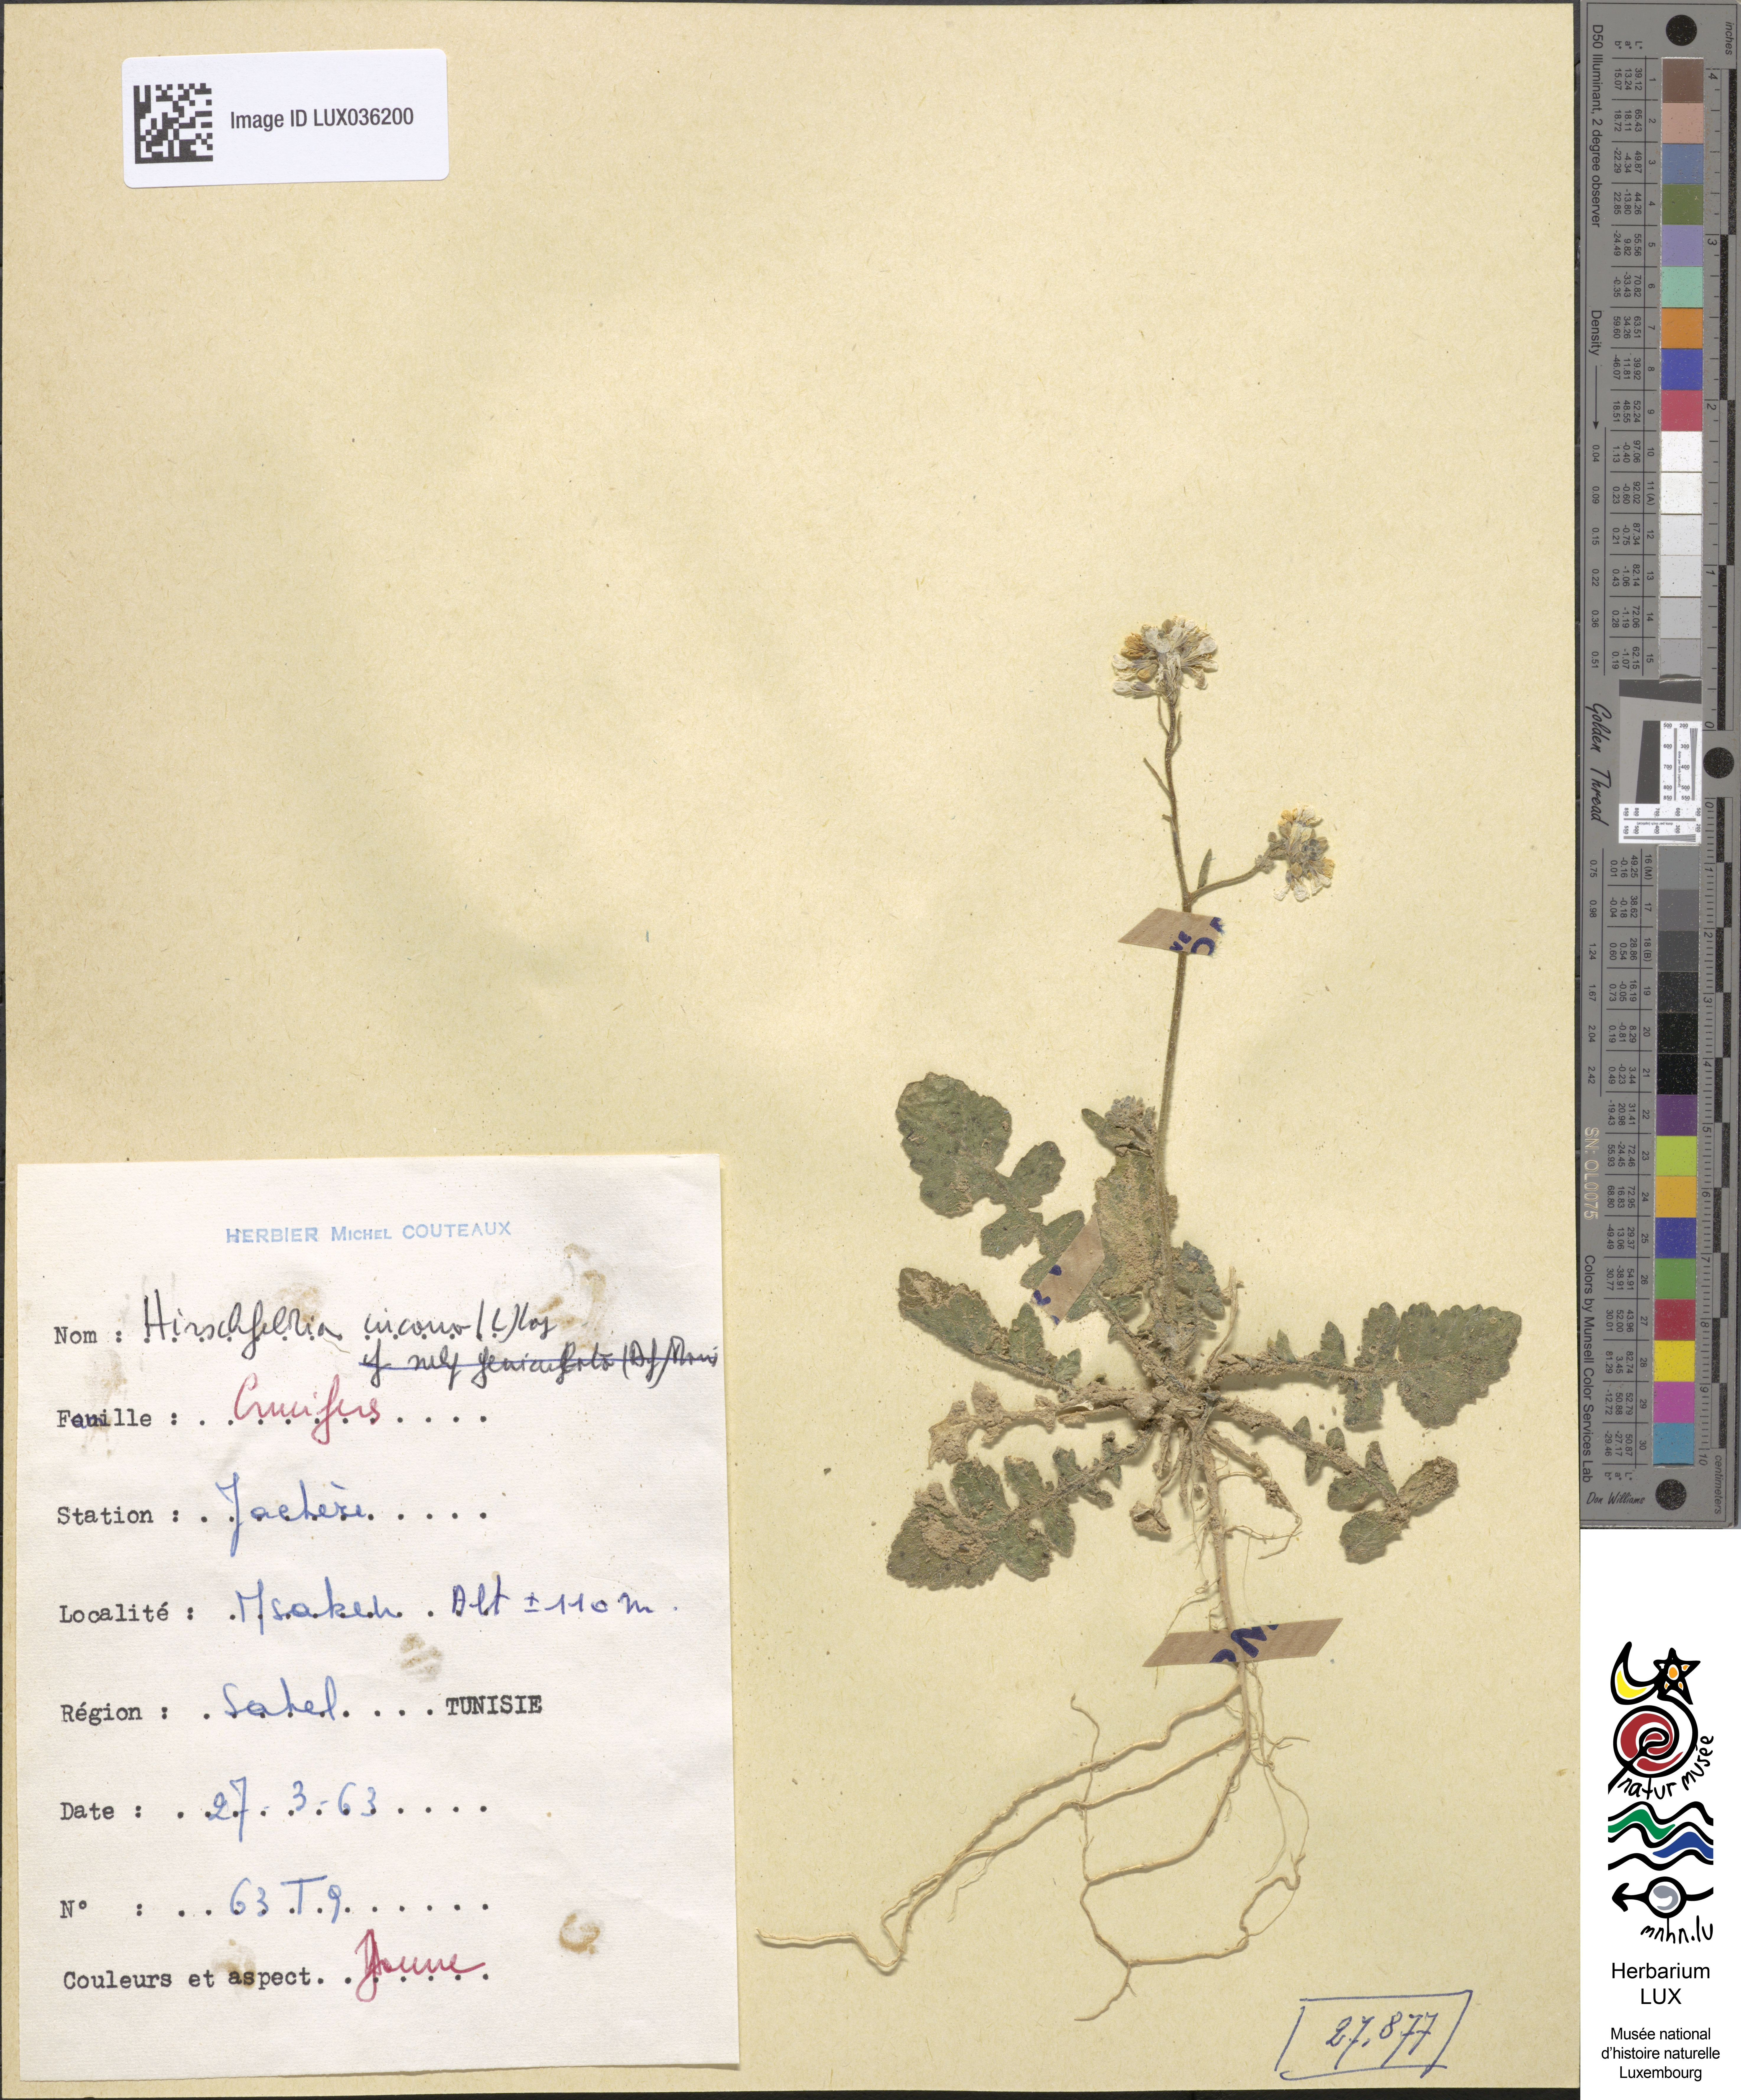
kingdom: Plantae
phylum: Tracheophyta
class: Magnoliopsida
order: Brassicales
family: Brassicaceae
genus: Hirschfeldia
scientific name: Hirschfeldia incana
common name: Hoary mustard
